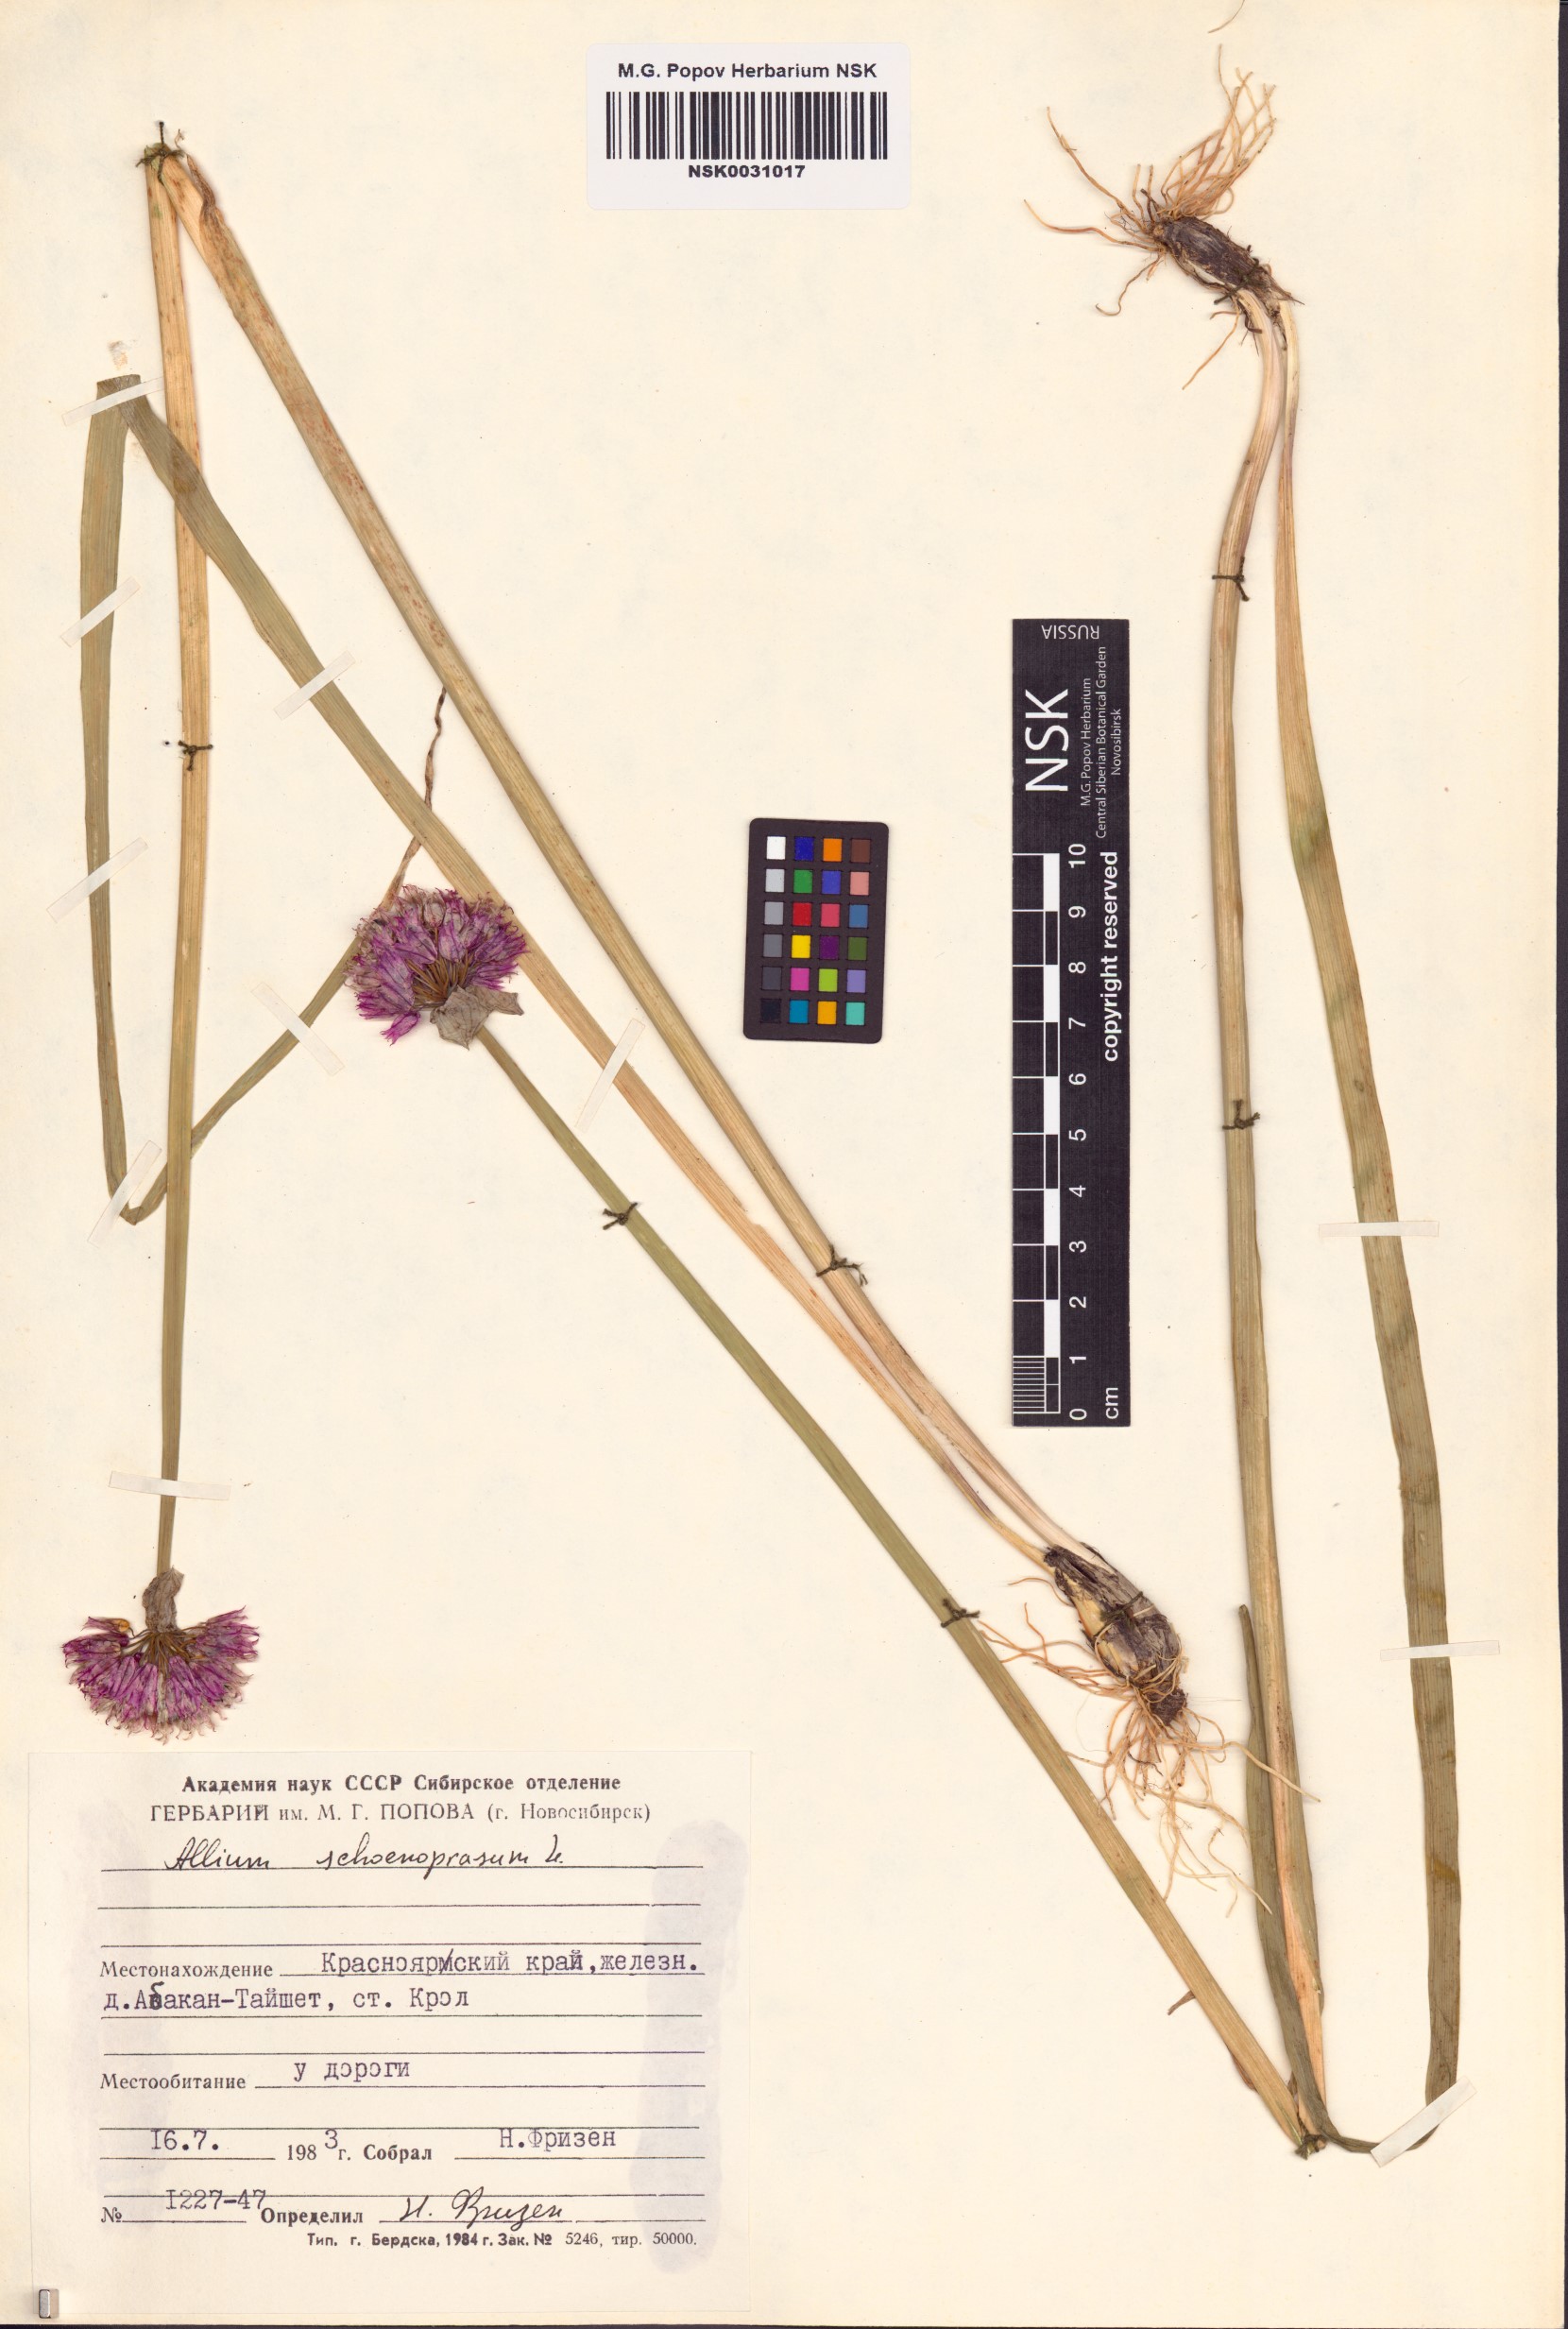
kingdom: Plantae
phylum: Tracheophyta
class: Liliopsida
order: Asparagales
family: Amaryllidaceae
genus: Allium
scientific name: Allium schoenoprasum
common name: Chives
